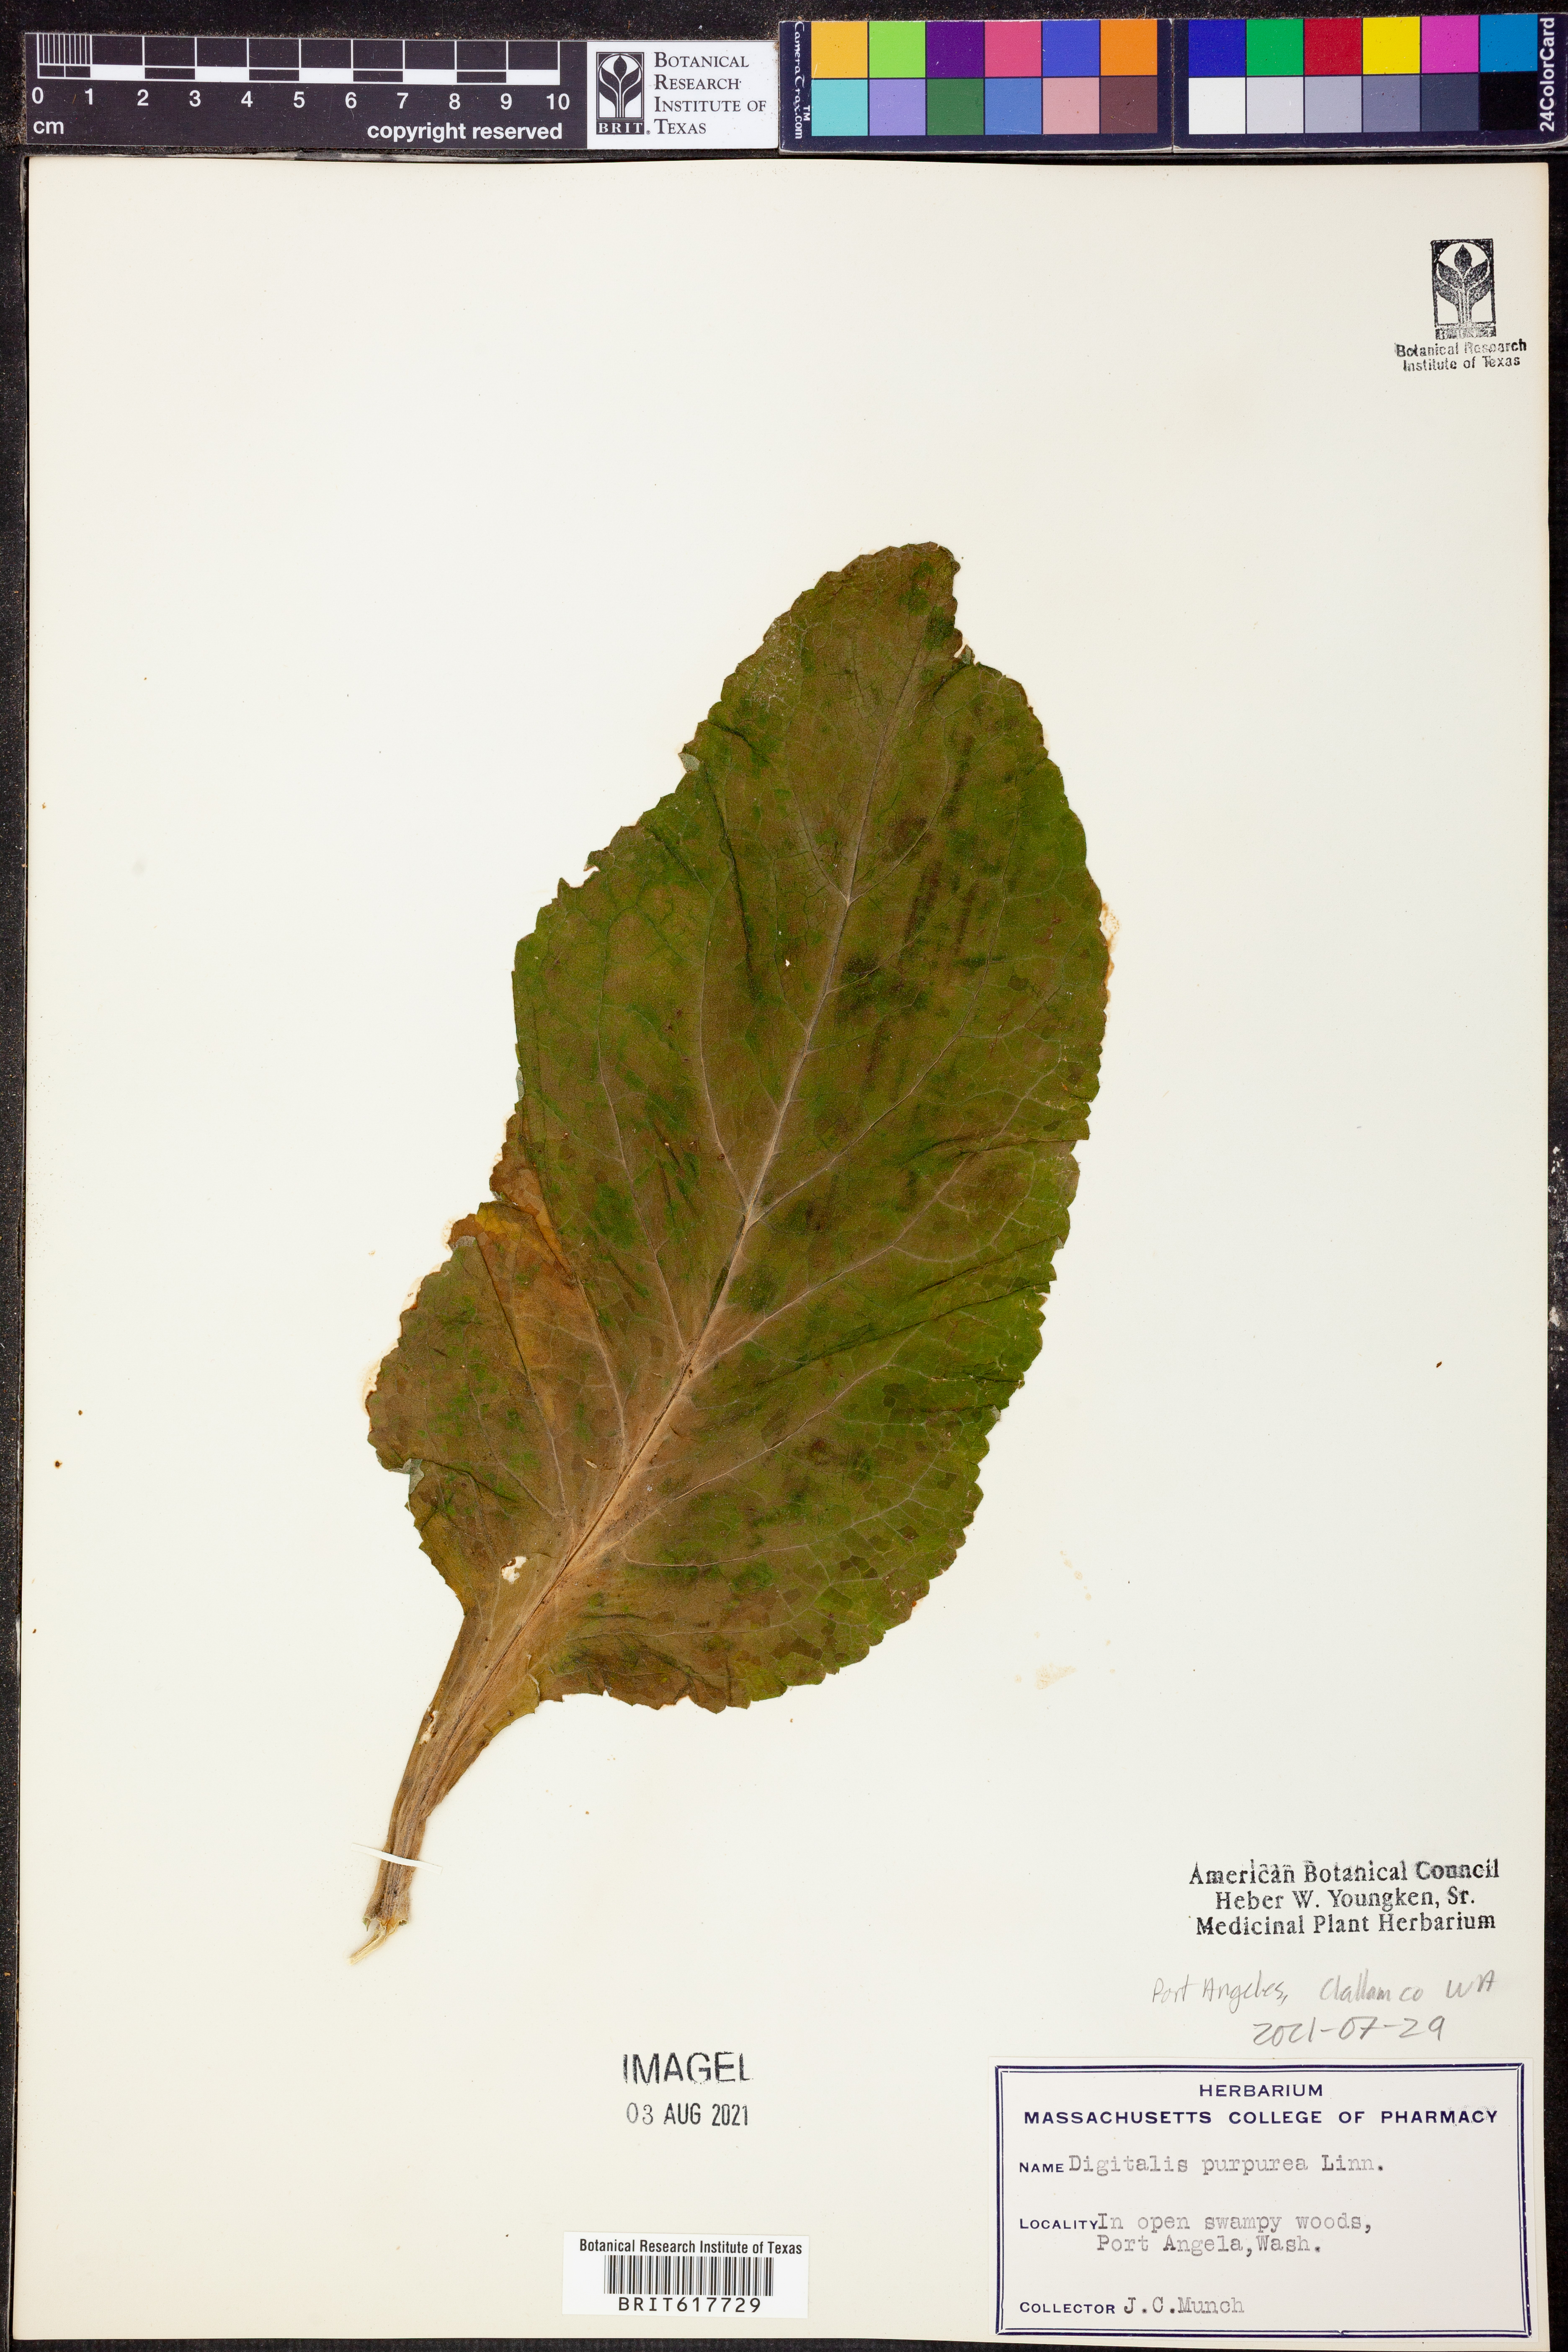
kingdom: Plantae
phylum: Tracheophyta
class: Magnoliopsida
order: Lamiales
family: Plantaginaceae
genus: Digitalis
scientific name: Digitalis purpurea
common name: Foxglove
